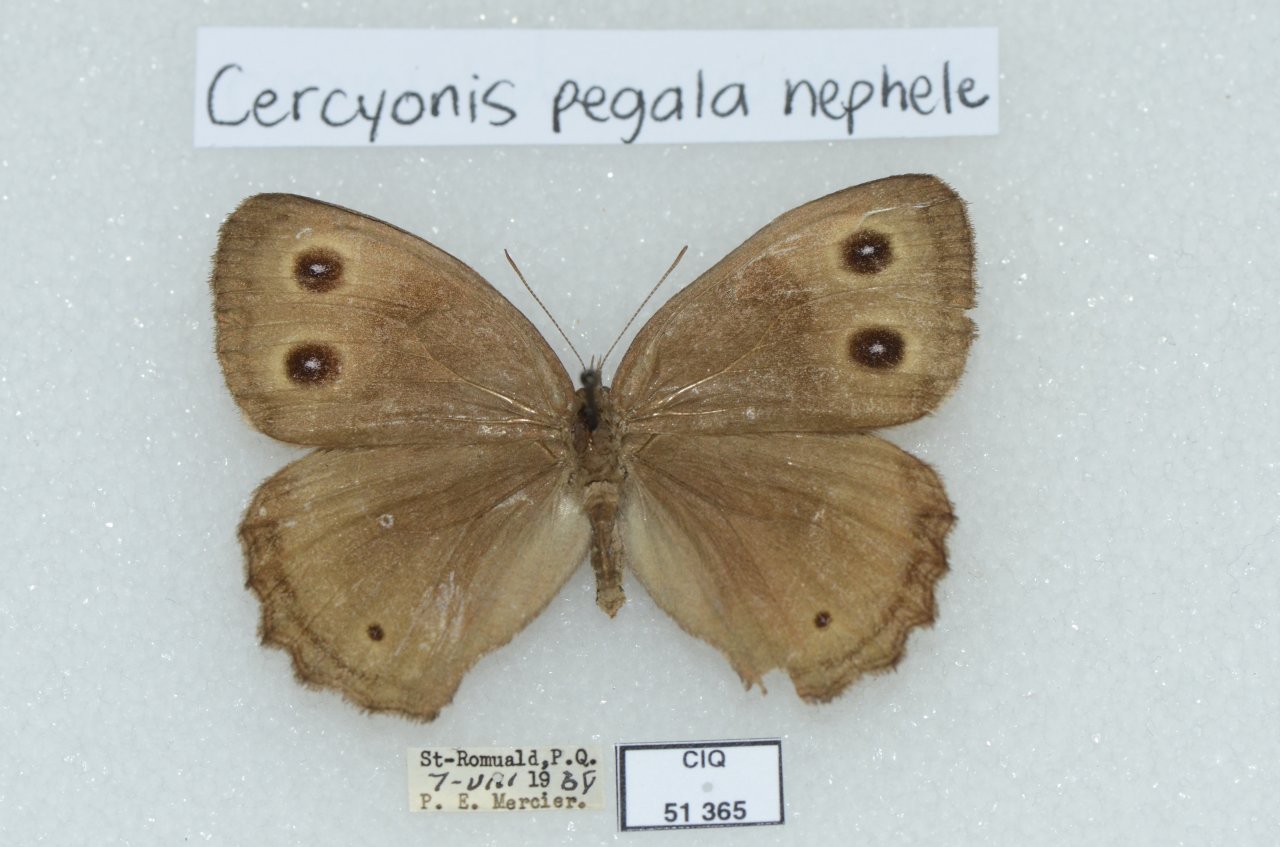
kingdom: Animalia
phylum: Arthropoda
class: Insecta
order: Lepidoptera
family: Nymphalidae
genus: Cercyonis
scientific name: Cercyonis pegala
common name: Common Wood-Nymph
